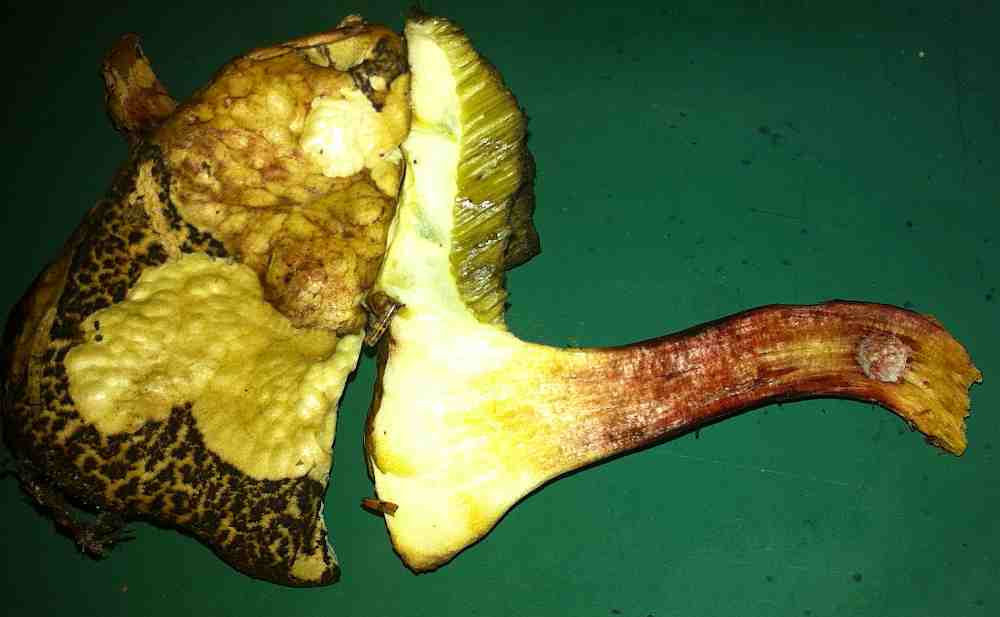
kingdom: Fungi
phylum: Basidiomycota
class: Agaricomycetes
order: Boletales
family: Boletaceae
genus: Xerocomellus
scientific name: Xerocomellus chrysenteron
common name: rødsprukken rørhat
